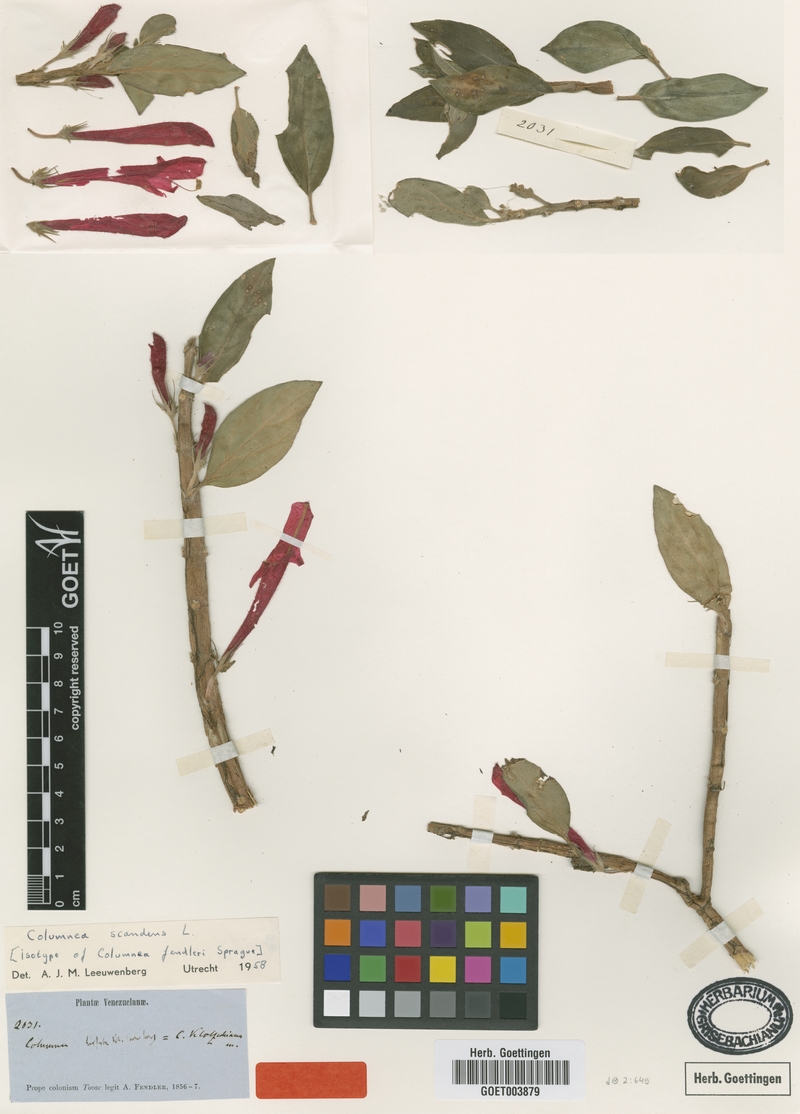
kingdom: Plantae
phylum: Tracheophyta
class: Magnoliopsida
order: Lamiales
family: Gesneriaceae
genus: Columnea
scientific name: Columnea scandens
